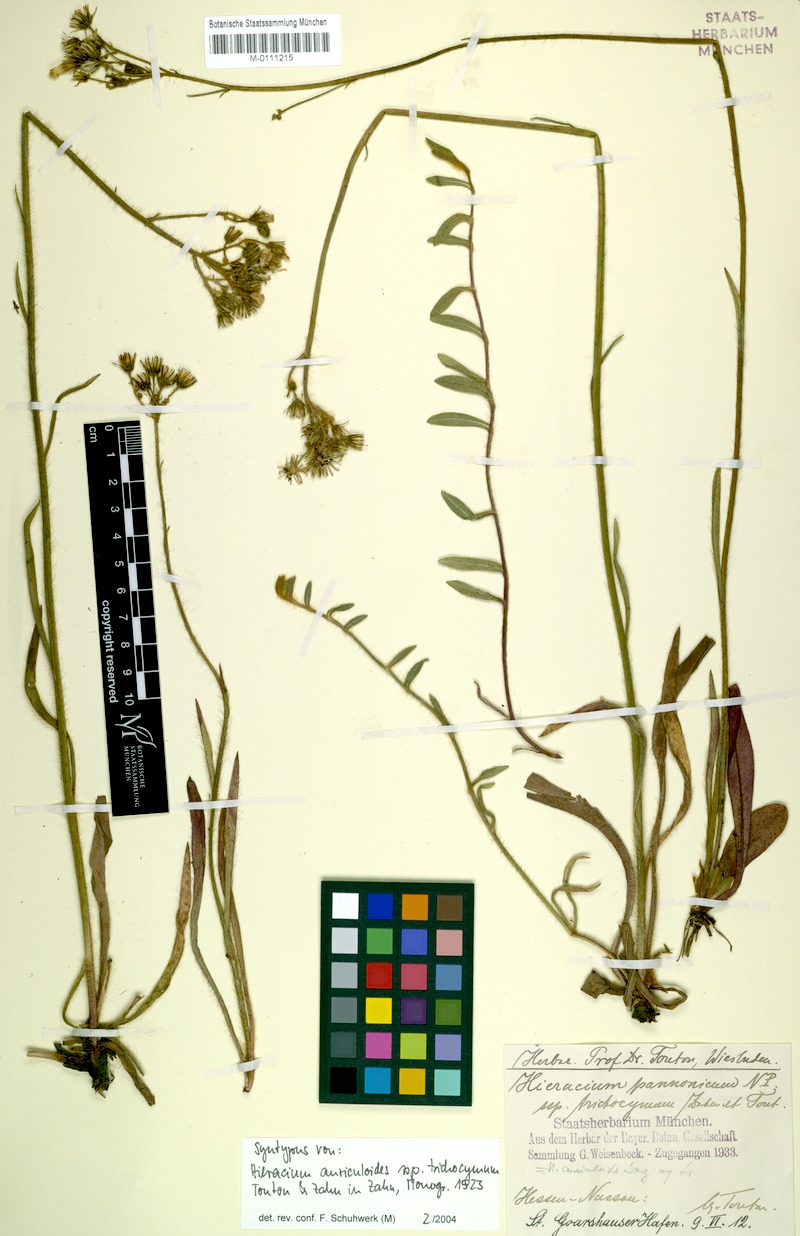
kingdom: Plantae
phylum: Tracheophyta
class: Magnoliopsida
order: Asterales
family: Asteraceae
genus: Pilosella
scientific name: Pilosella auriculoides
